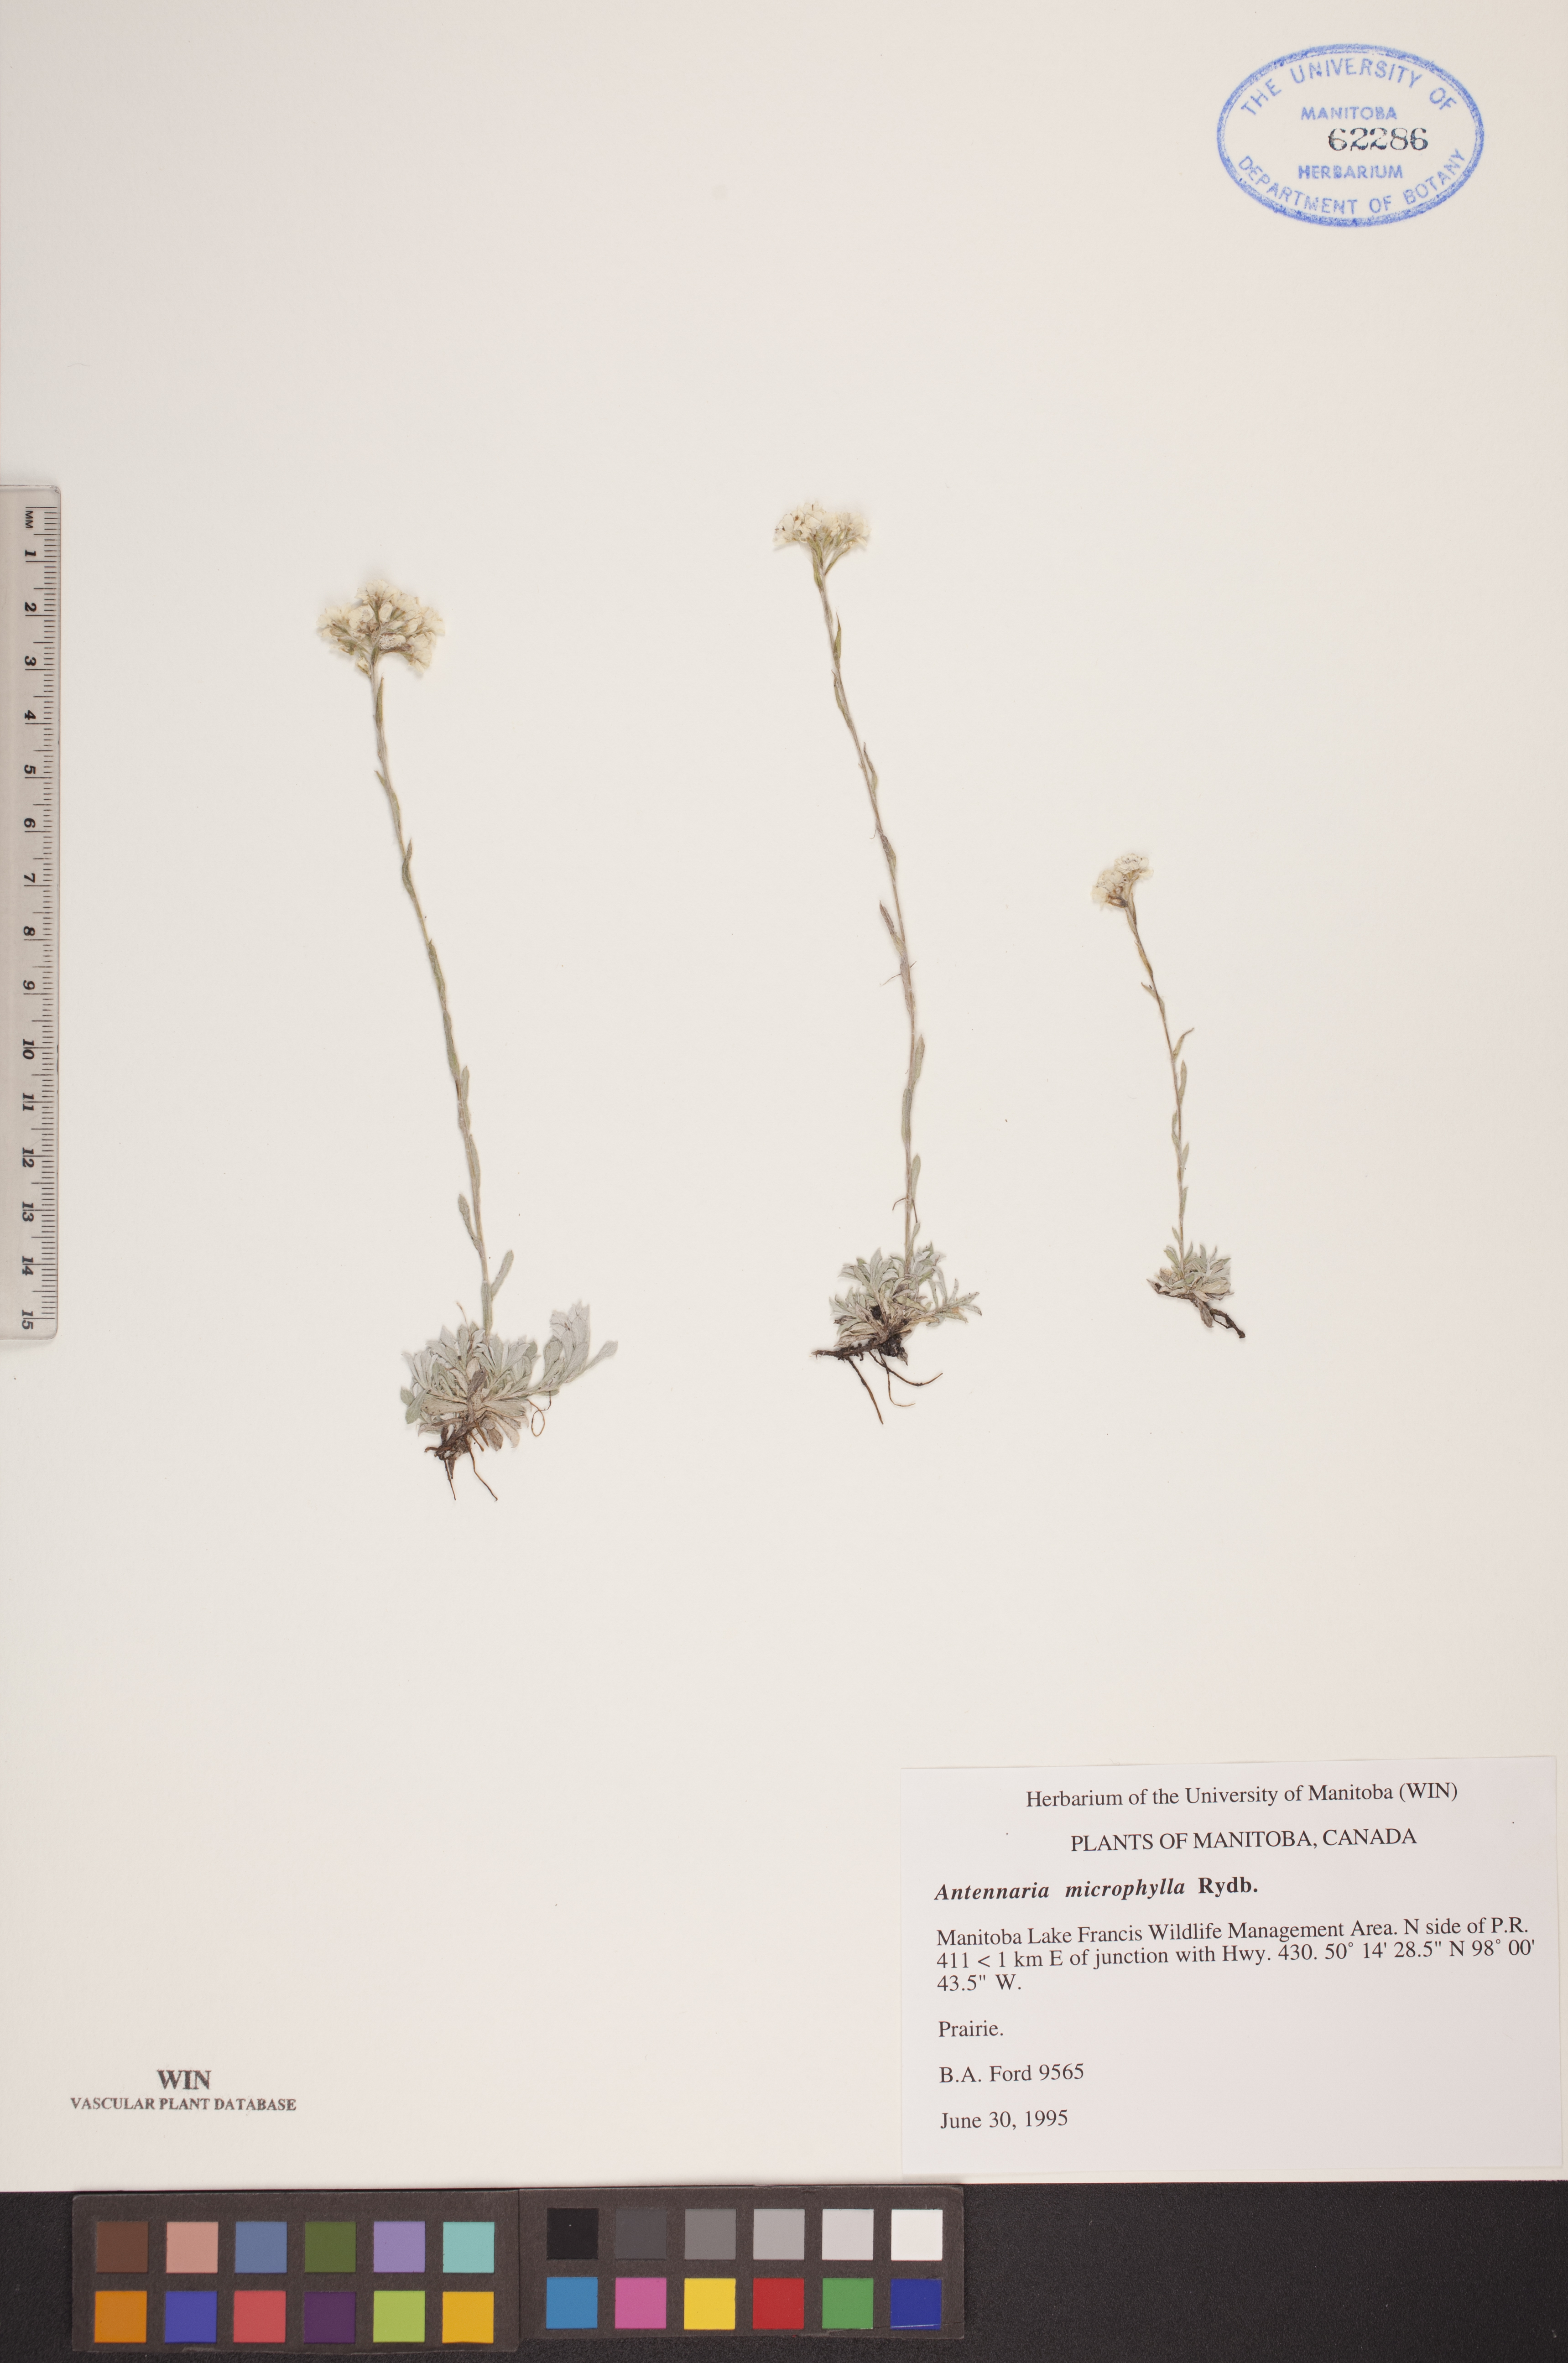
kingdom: Plantae
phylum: Tracheophyta
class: Magnoliopsida
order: Asterales
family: Asteraceae
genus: Antennaria
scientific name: Antennaria microphylla
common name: Littleleaf pussytoes
